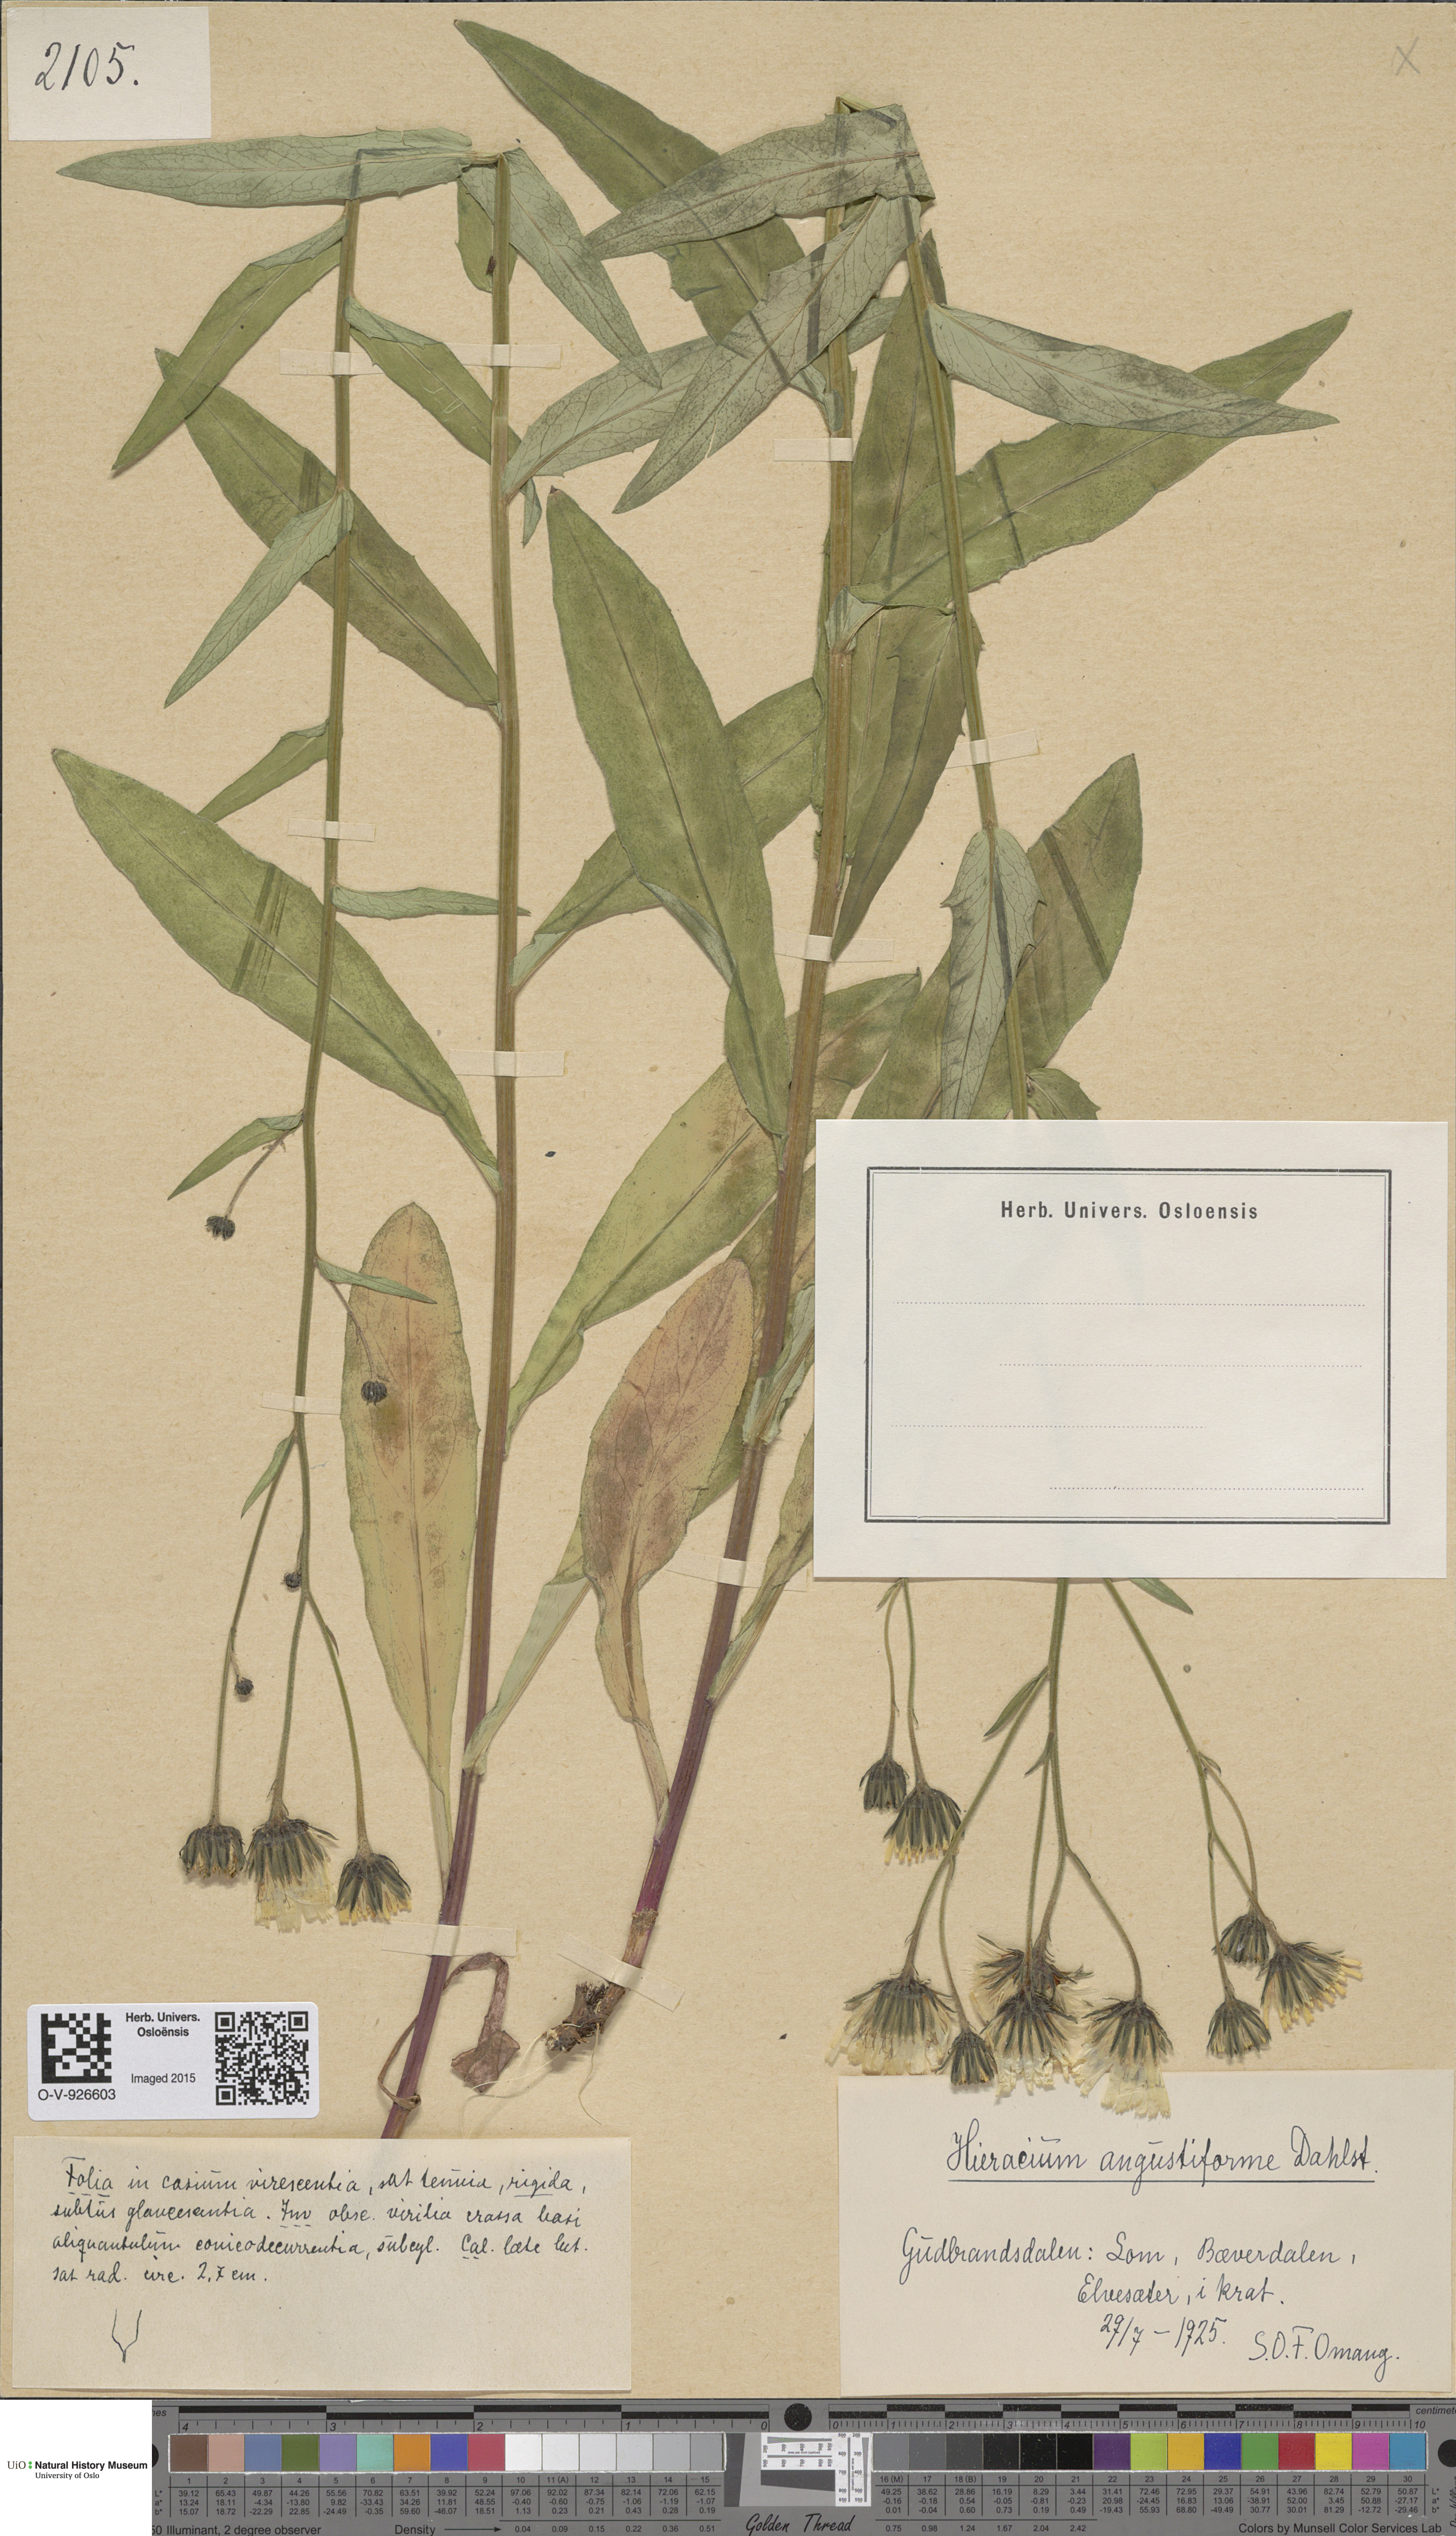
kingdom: Plantae
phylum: Tracheophyta
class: Magnoliopsida
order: Asterales
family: Asteraceae
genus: Hieracium
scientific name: Hieracium
